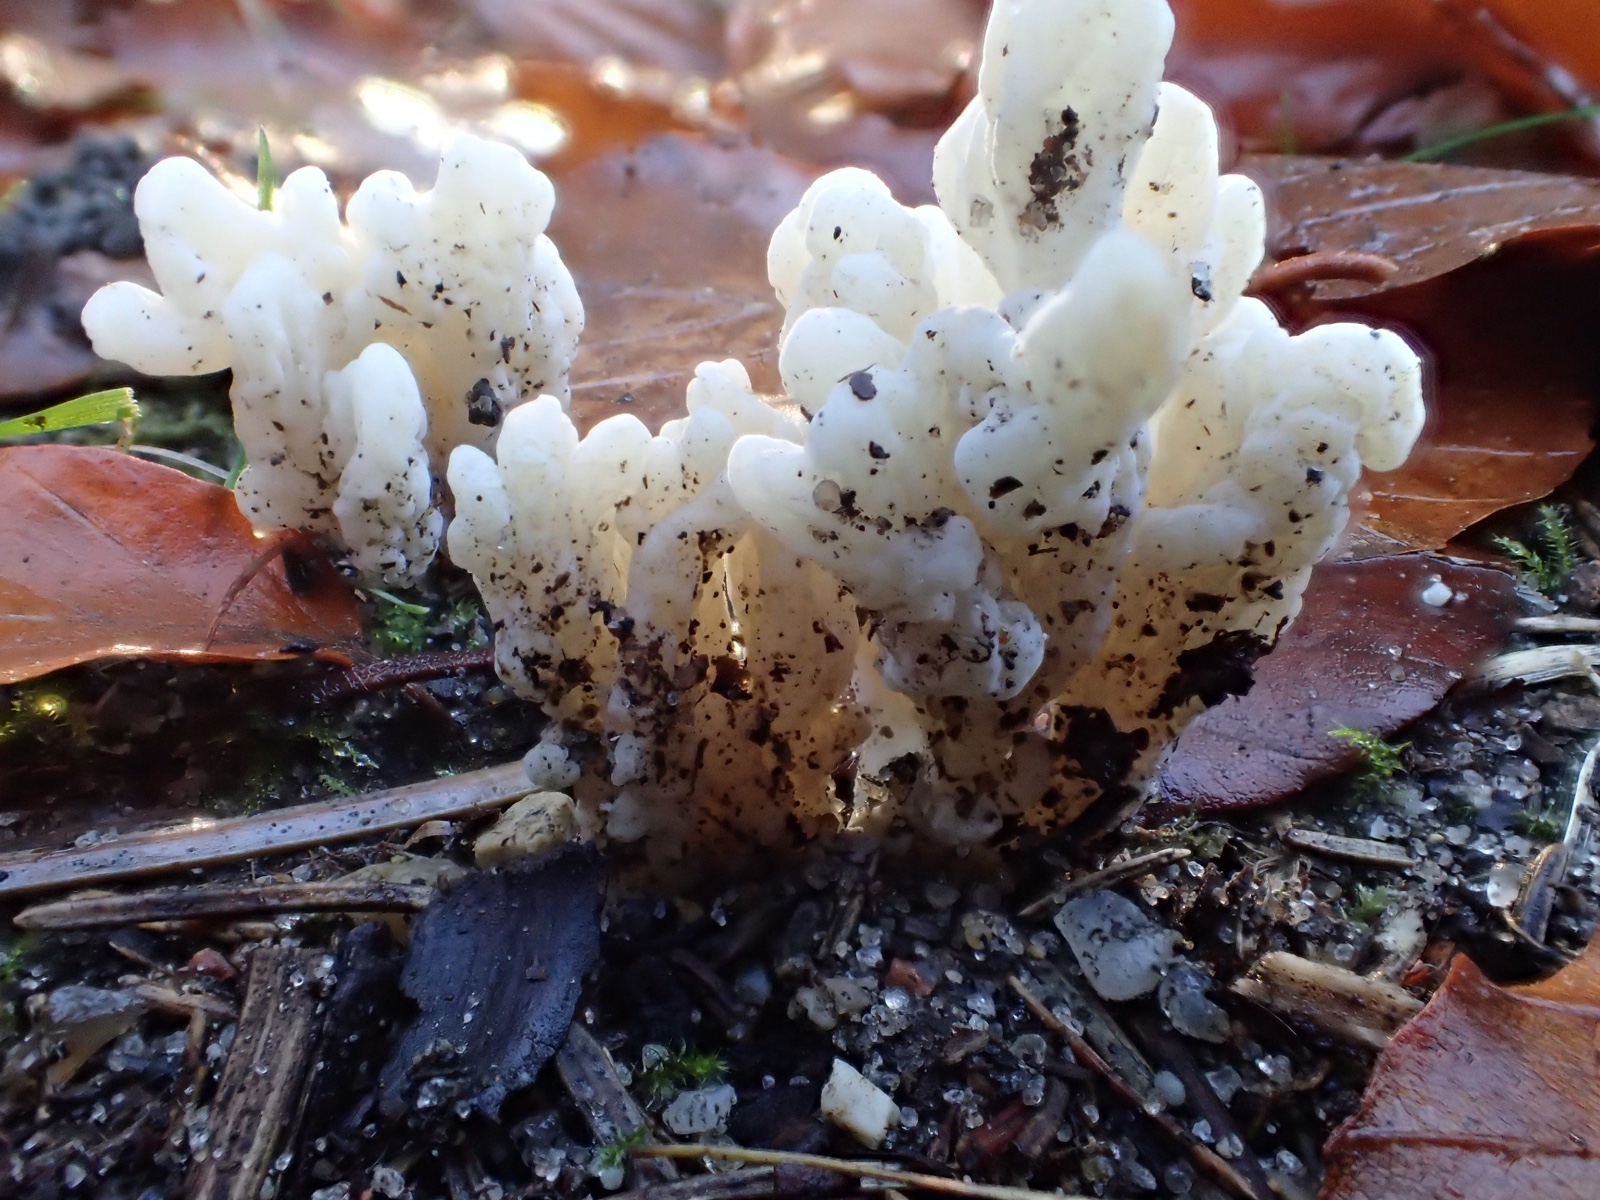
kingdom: Fungi
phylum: Basidiomycota
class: Agaricomycetes
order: Cantharellales
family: Hydnaceae
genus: Clavulina
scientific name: Clavulina
